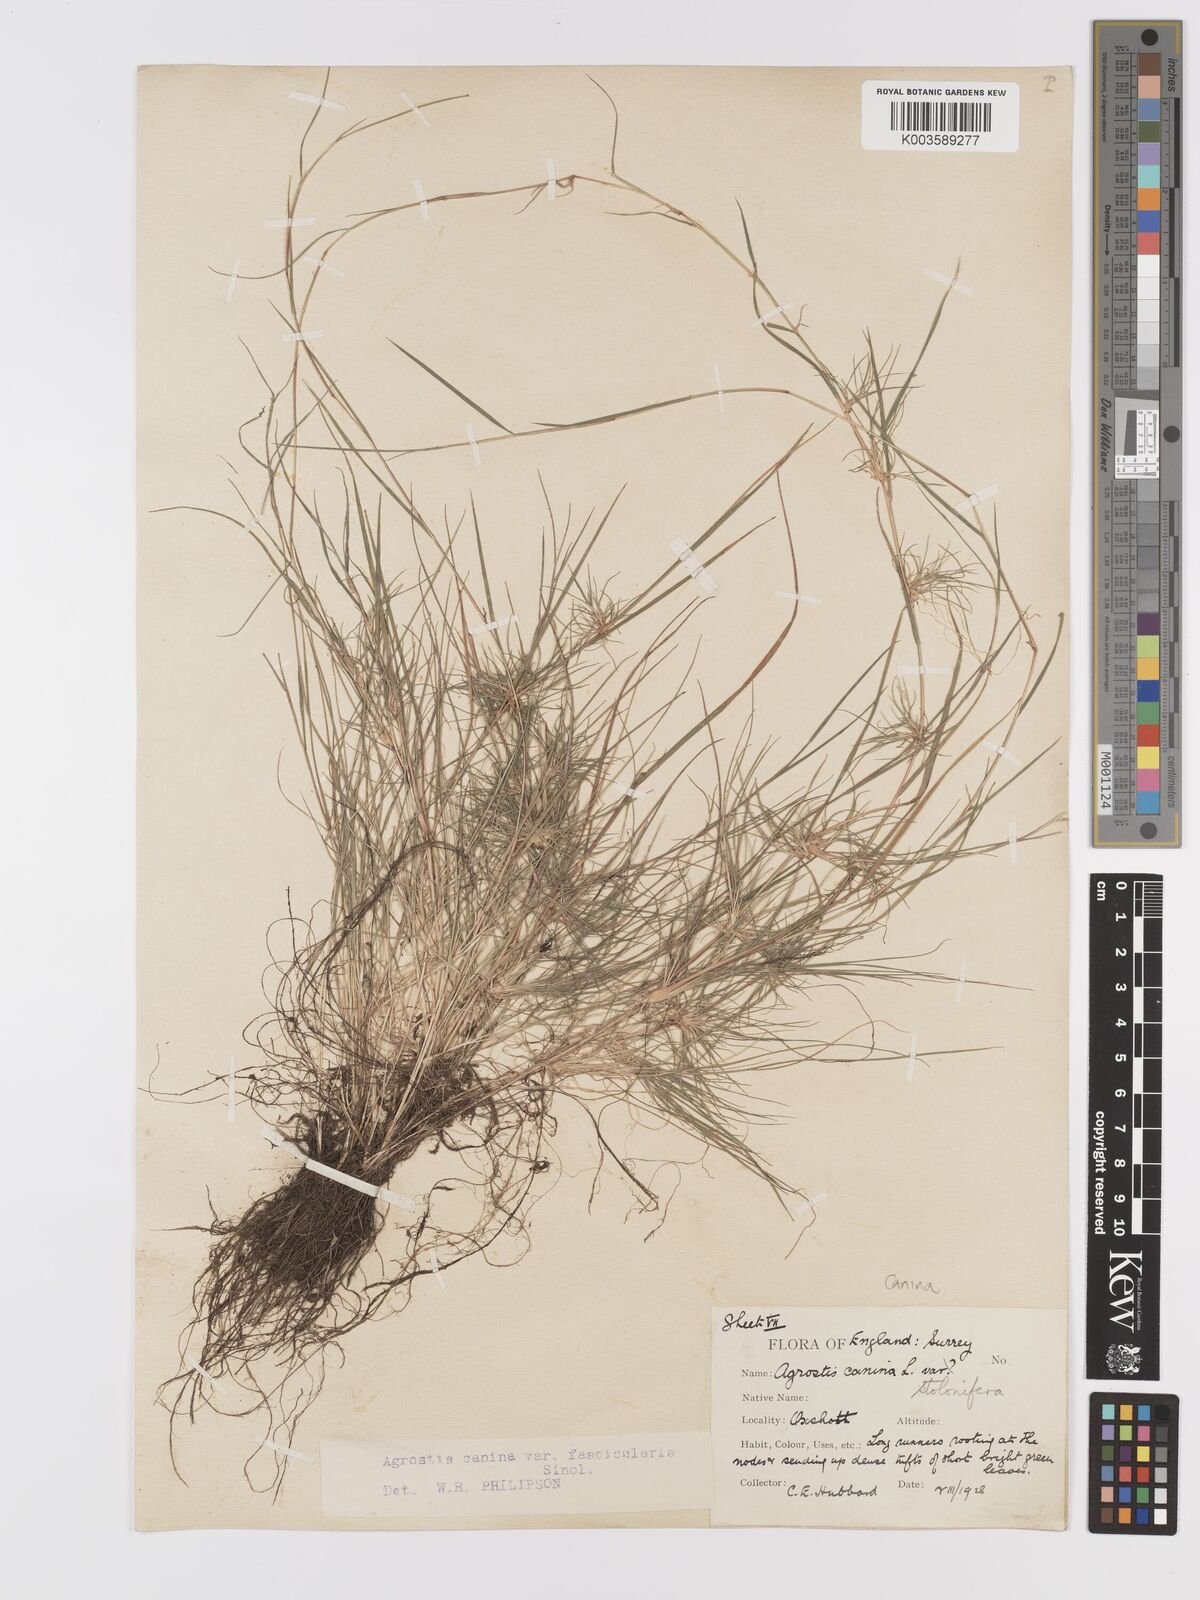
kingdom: Plantae
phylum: Tracheophyta
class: Liliopsida
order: Poales
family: Poaceae
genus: Agrostis
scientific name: Agrostis canina
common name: Velvet bent
